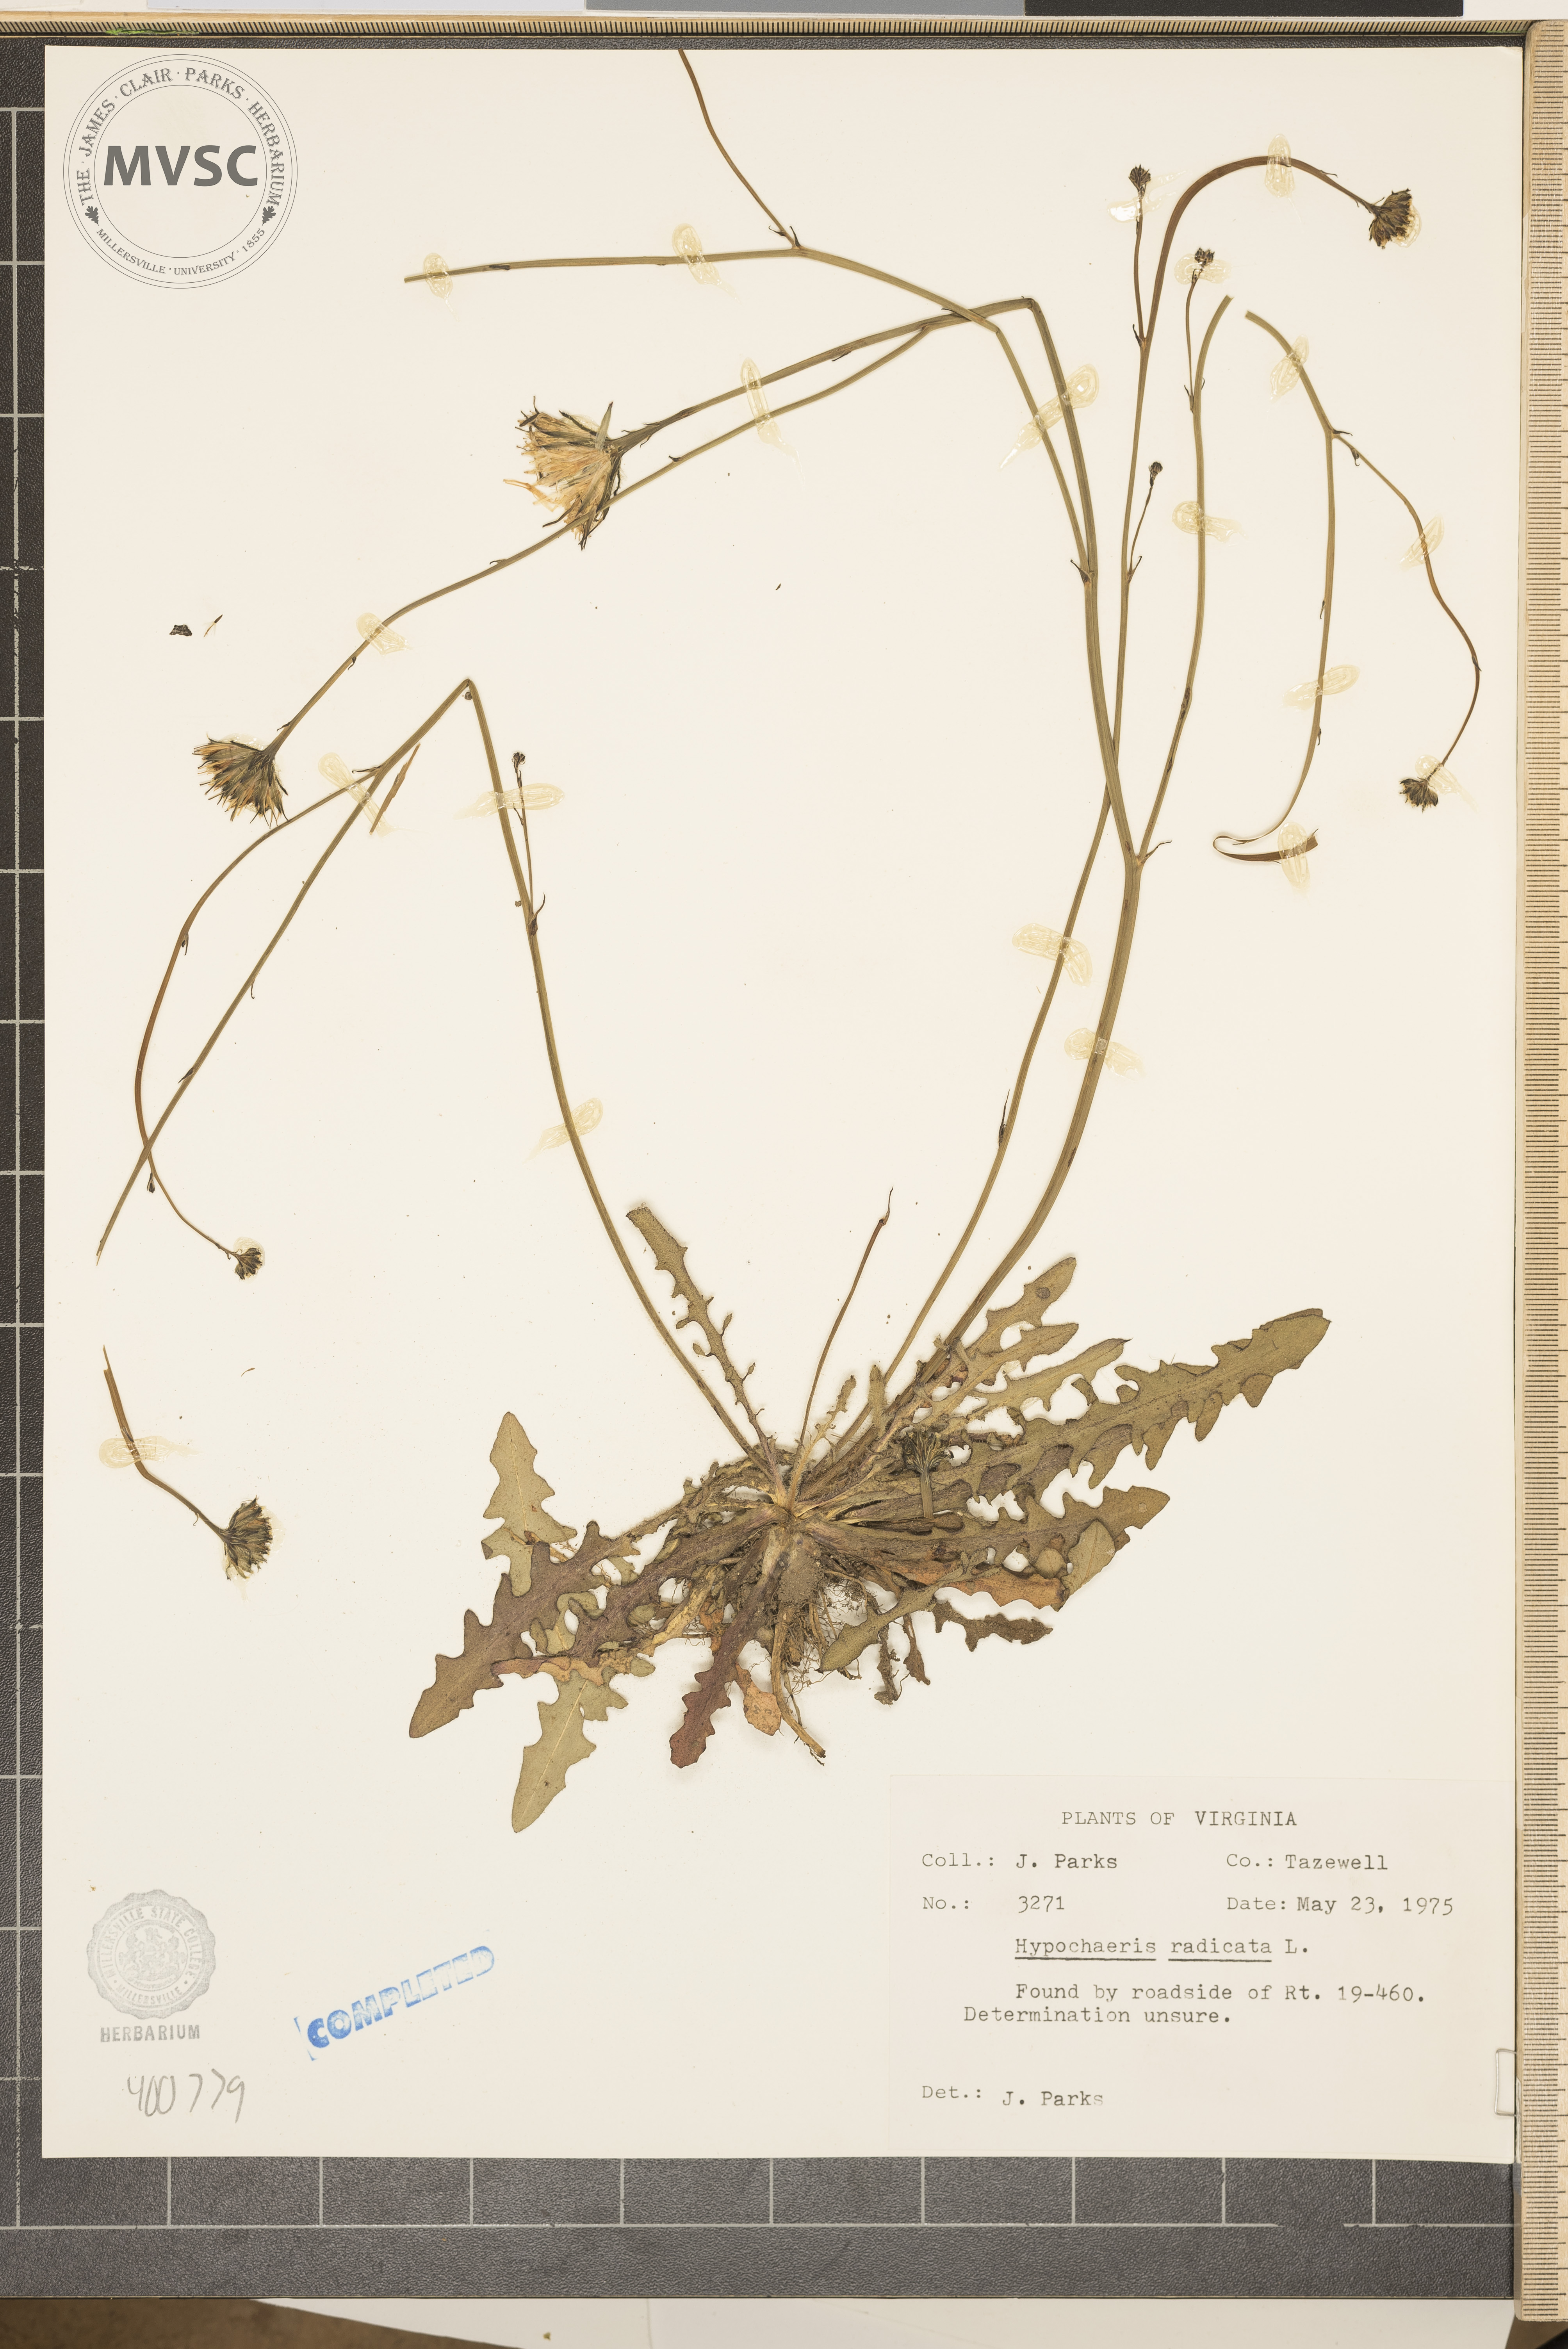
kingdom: Plantae
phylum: Tracheophyta
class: Magnoliopsida
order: Asterales
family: Asteraceae
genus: Hypochaeris
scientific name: Hypochaeris radicata
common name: Flatweed
